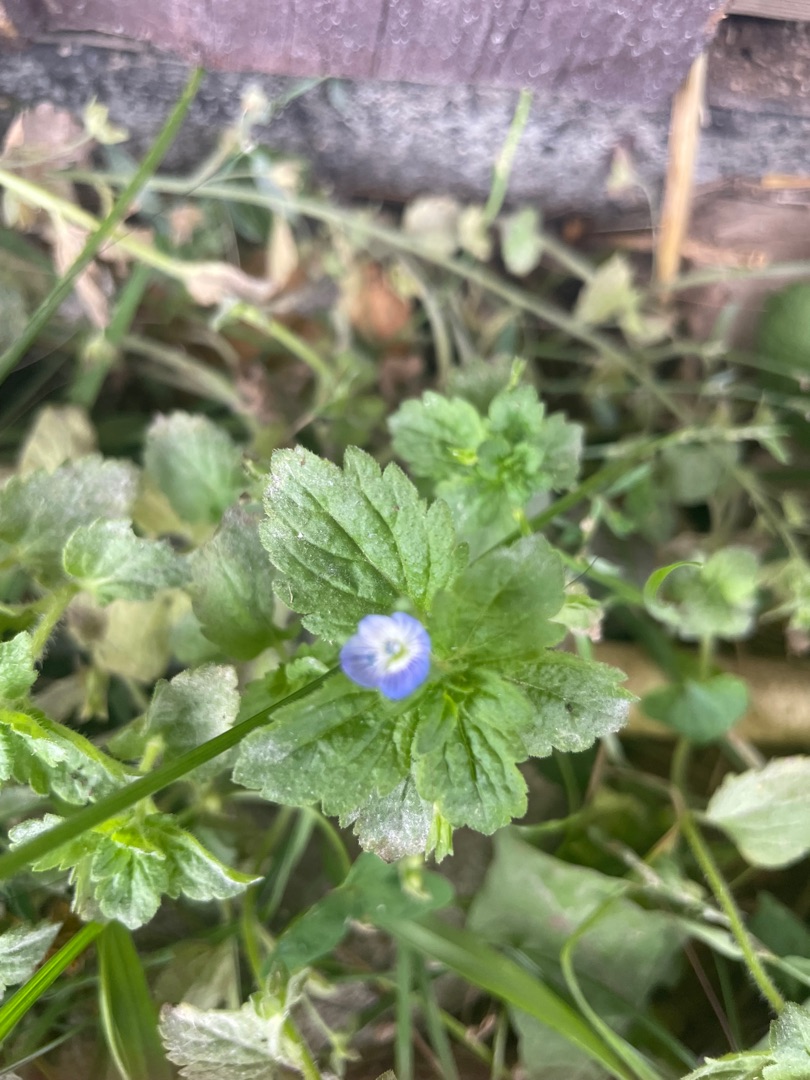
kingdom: Plantae
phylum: Tracheophyta
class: Magnoliopsida
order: Lamiales
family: Plantaginaceae
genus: Veronica
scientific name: Veronica persica
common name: Storkronet ærenpris
